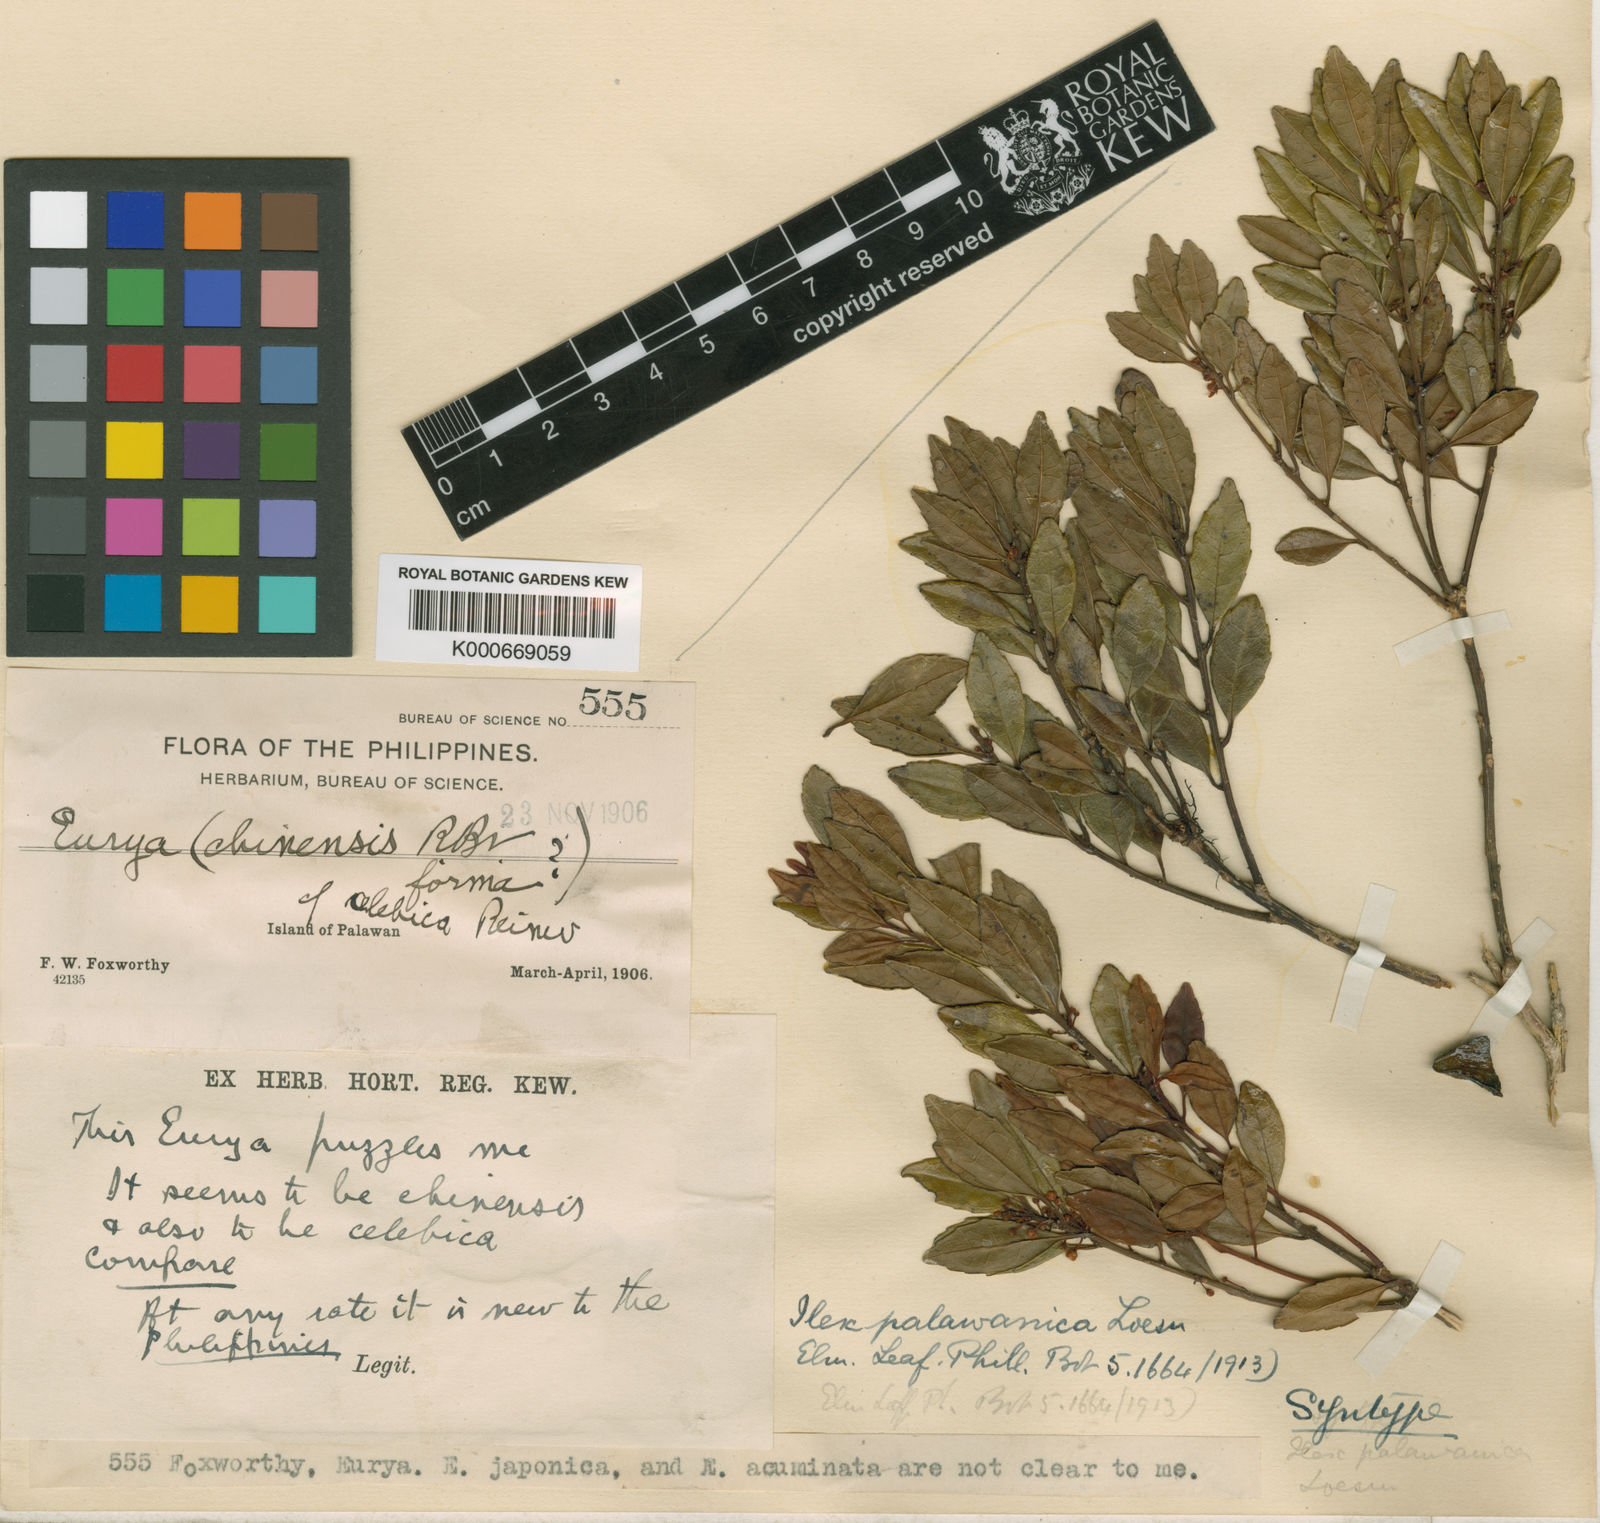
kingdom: Plantae
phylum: Tracheophyta
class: Magnoliopsida
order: Aquifoliales
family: Aquifoliaceae
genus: Ilex
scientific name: Ilex palawanica
